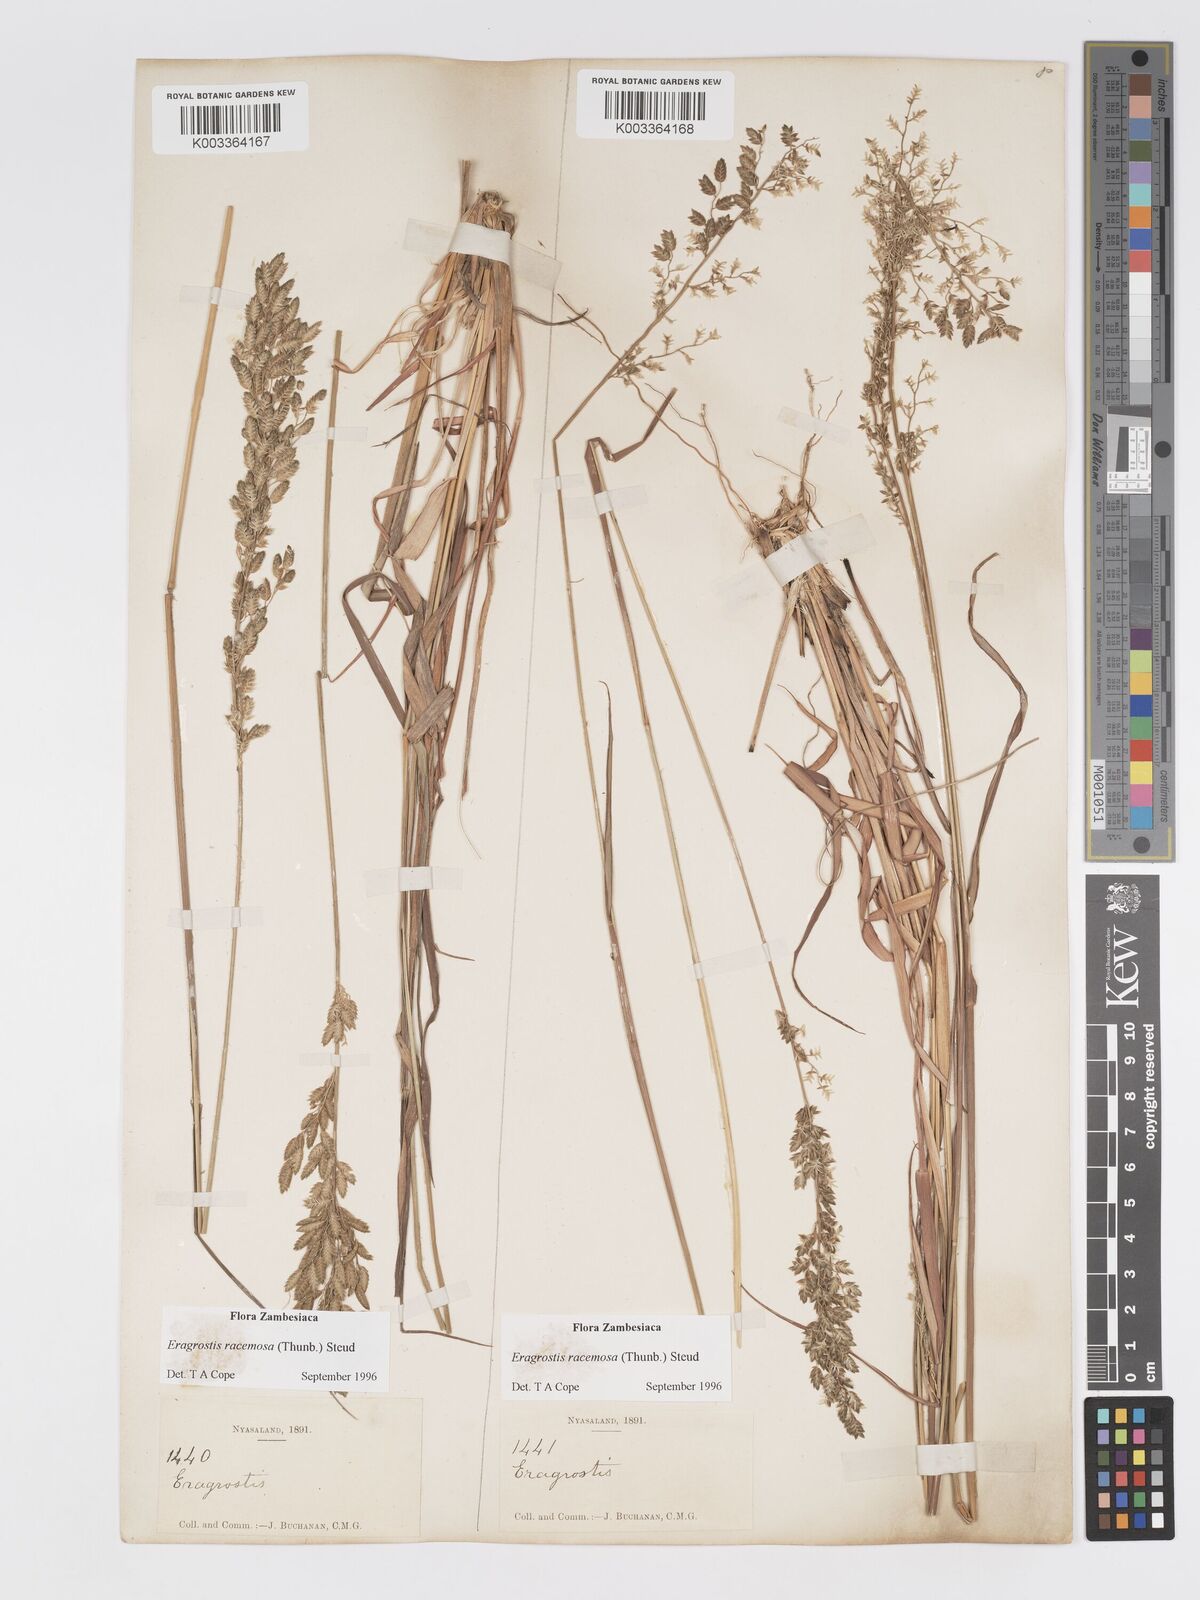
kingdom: Plantae
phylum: Tracheophyta
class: Liliopsida
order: Poales
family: Poaceae
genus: Eragrostis
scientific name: Eragrostis racemosa
